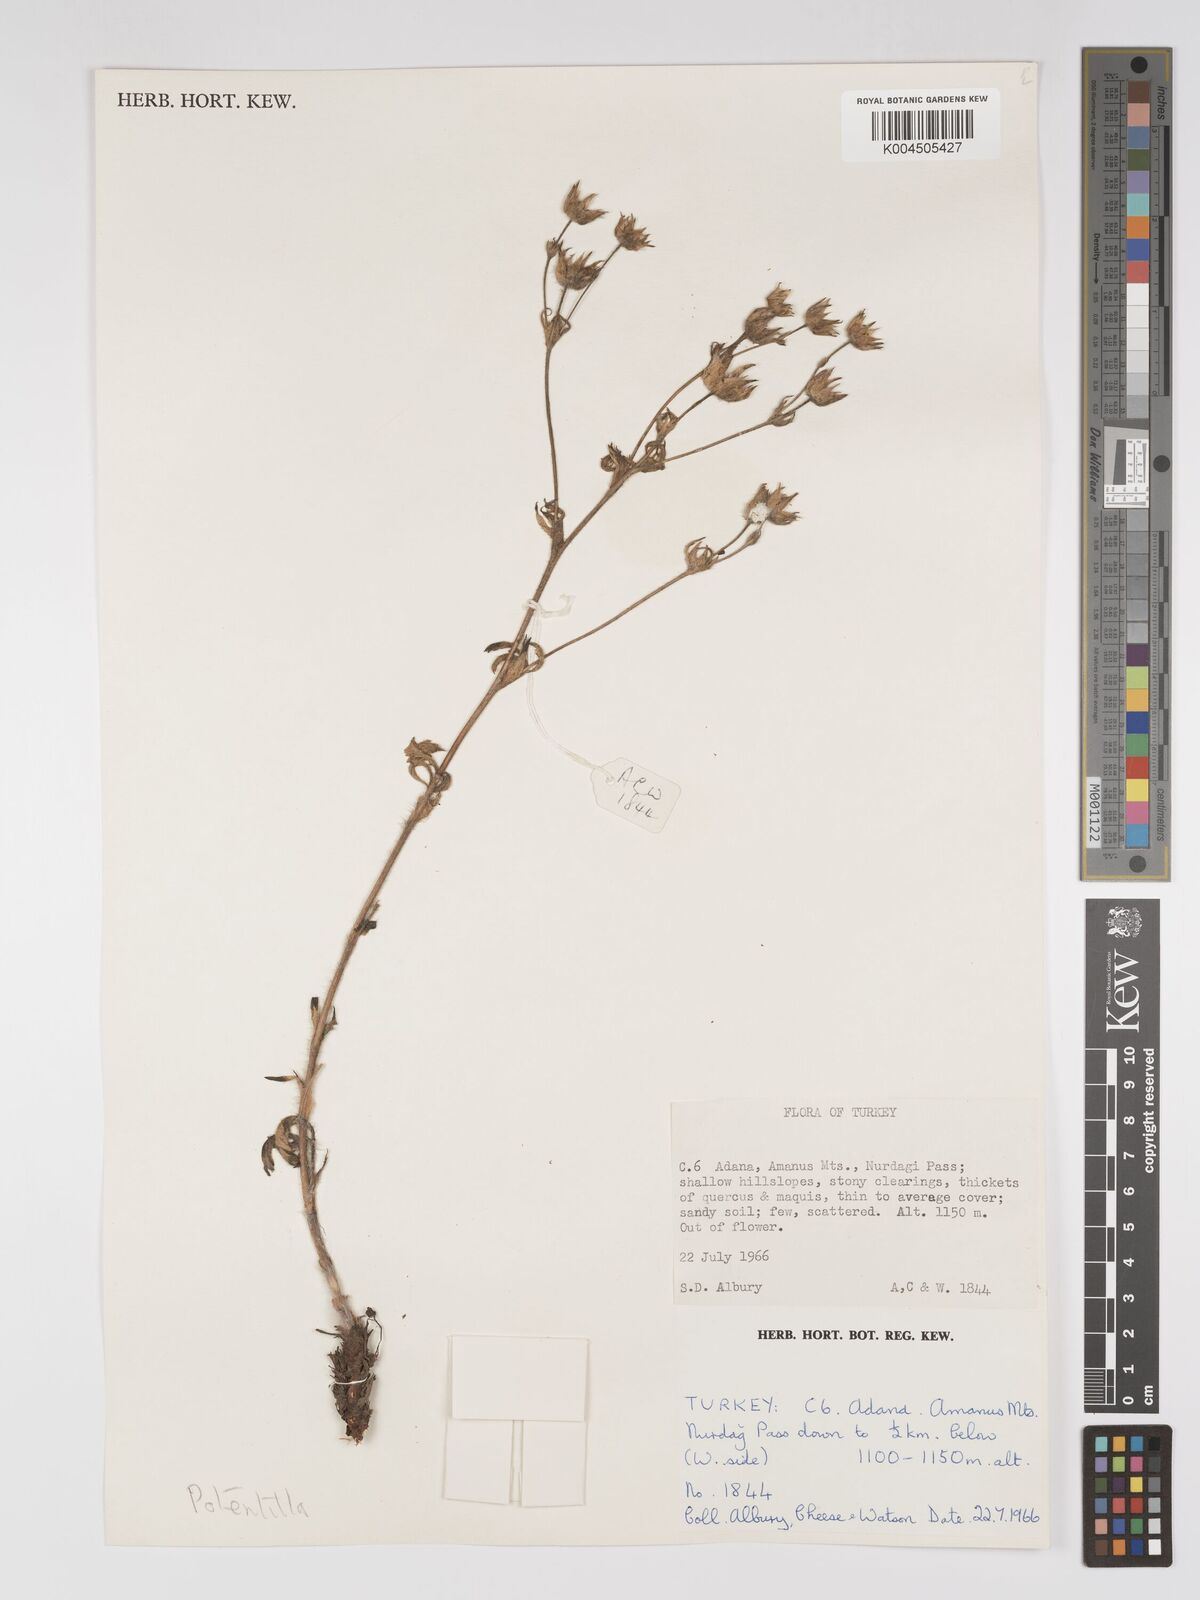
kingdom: Plantae
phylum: Tracheophyta
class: Magnoliopsida
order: Rosales
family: Rosaceae
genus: Potentilla
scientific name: Potentilla
